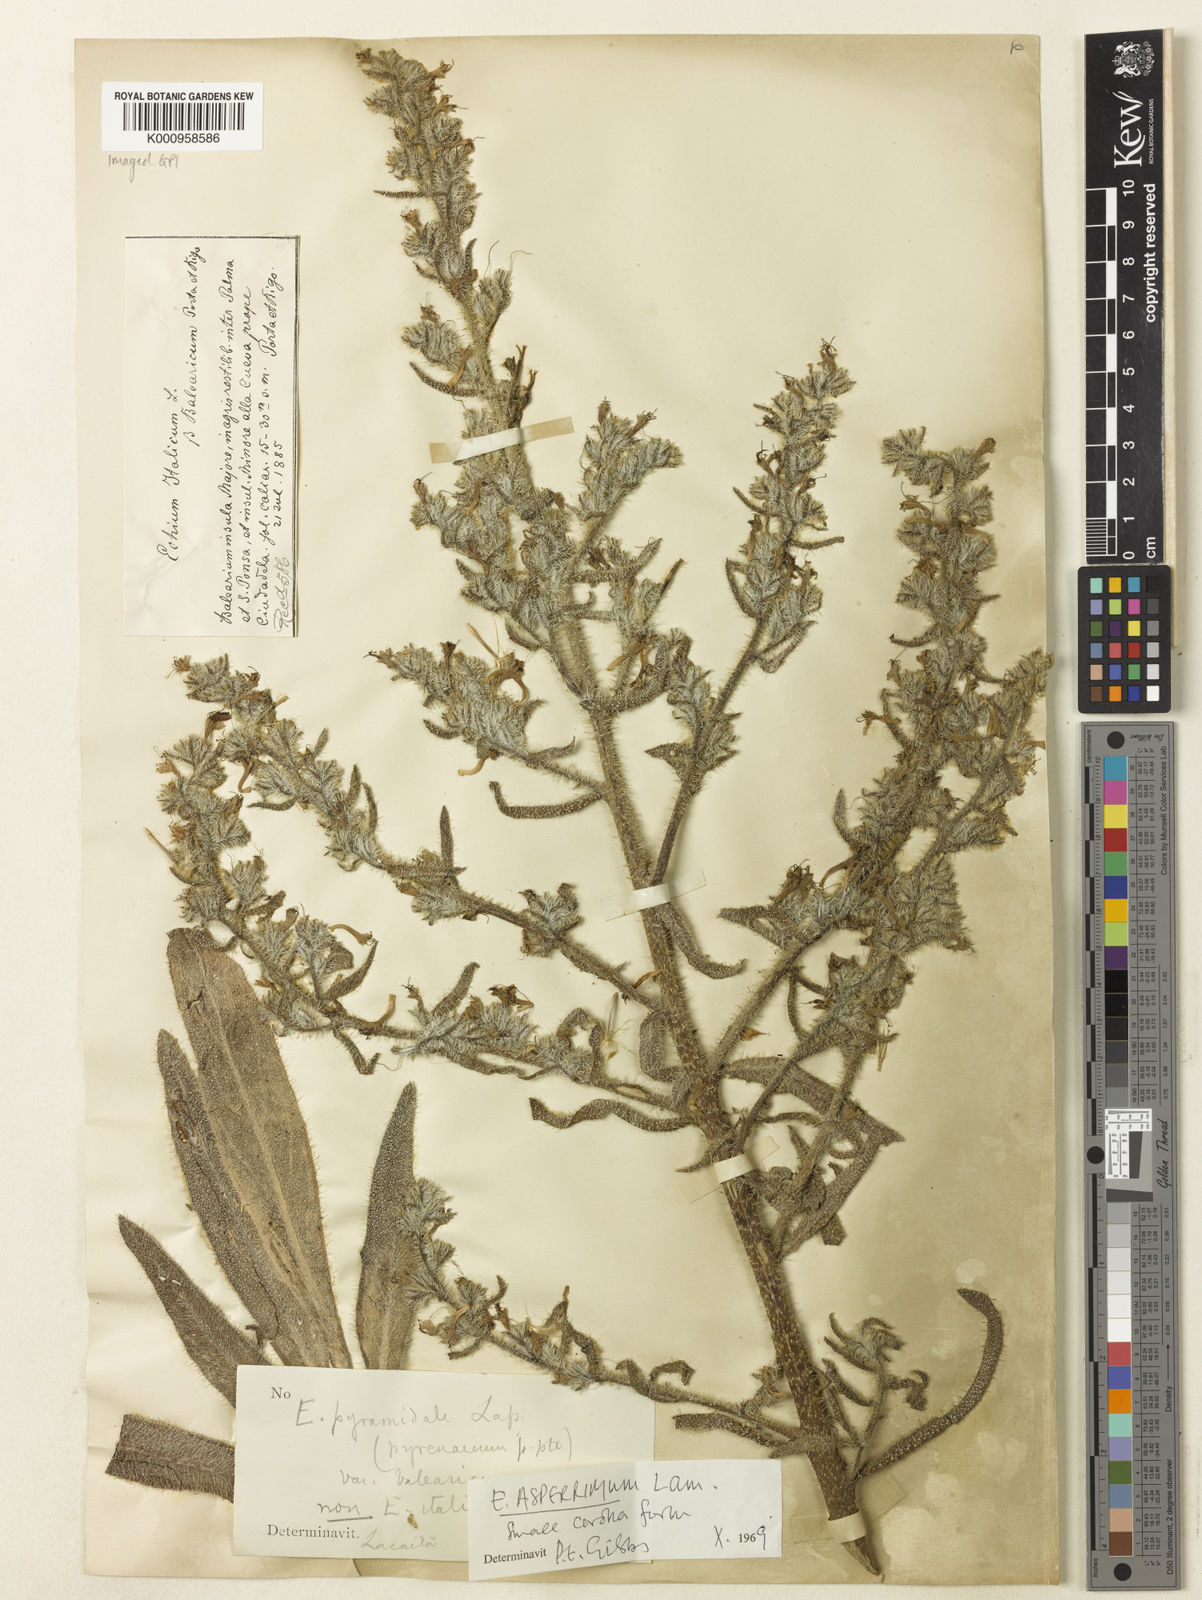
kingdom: Plantae
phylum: Tracheophyta
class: Magnoliopsida
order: Boraginales
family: Boraginaceae
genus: Echium
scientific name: Echium asperrimum
